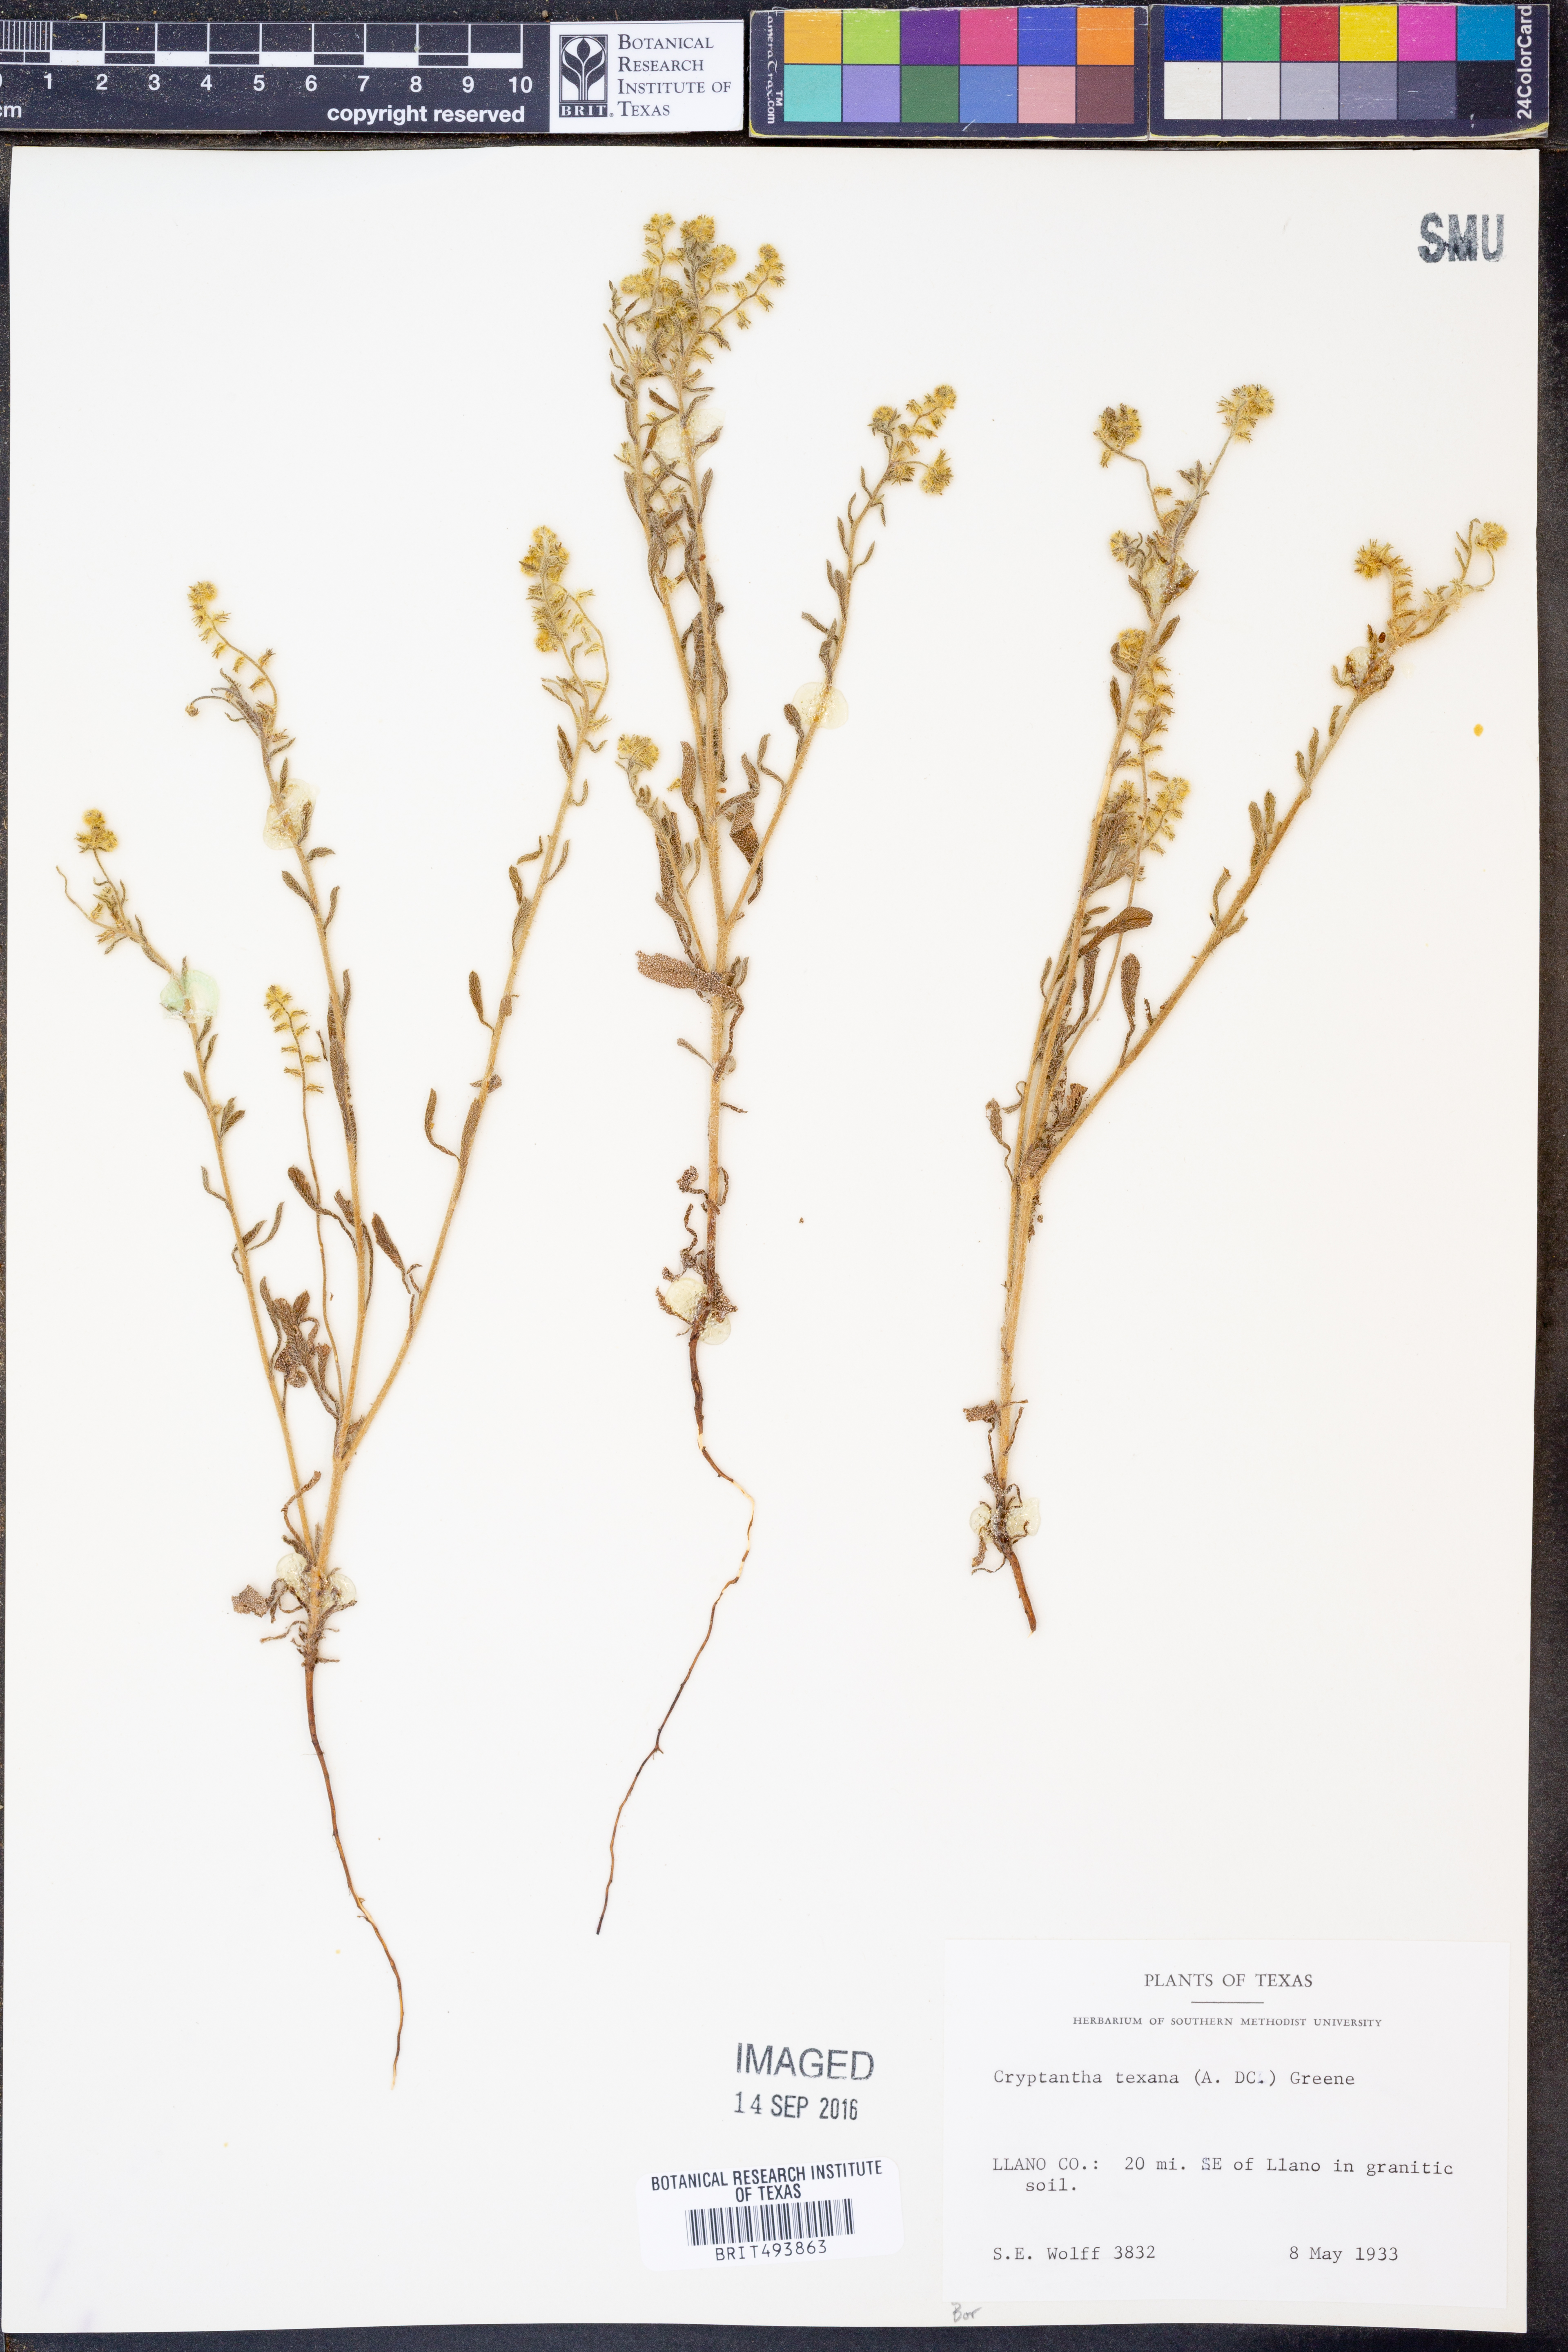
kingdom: Plantae
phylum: Tracheophyta
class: Magnoliopsida
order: Boraginales
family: Boraginaceae
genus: Cryptantha
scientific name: Cryptantha texana
